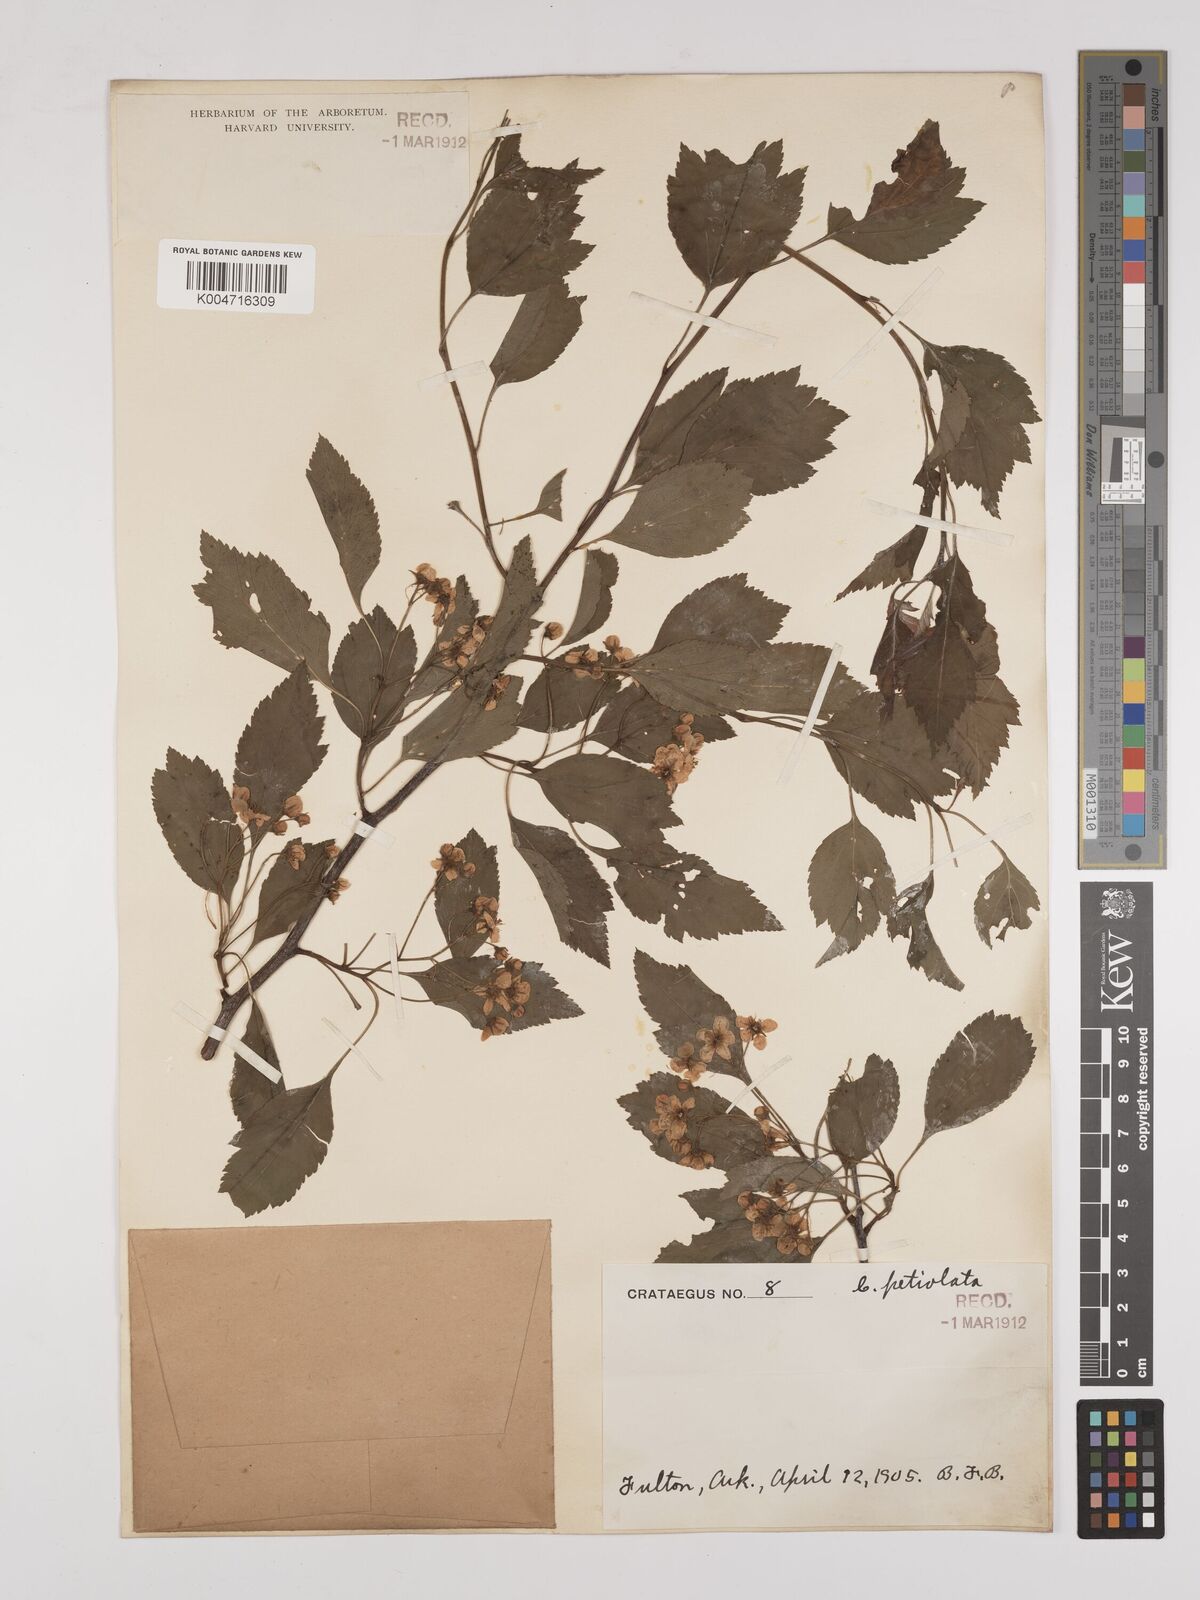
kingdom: Plantae
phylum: Tracheophyta
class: Magnoliopsida
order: Rosales
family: Rosaceae
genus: Crataegus
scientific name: Crataegus petiolata
